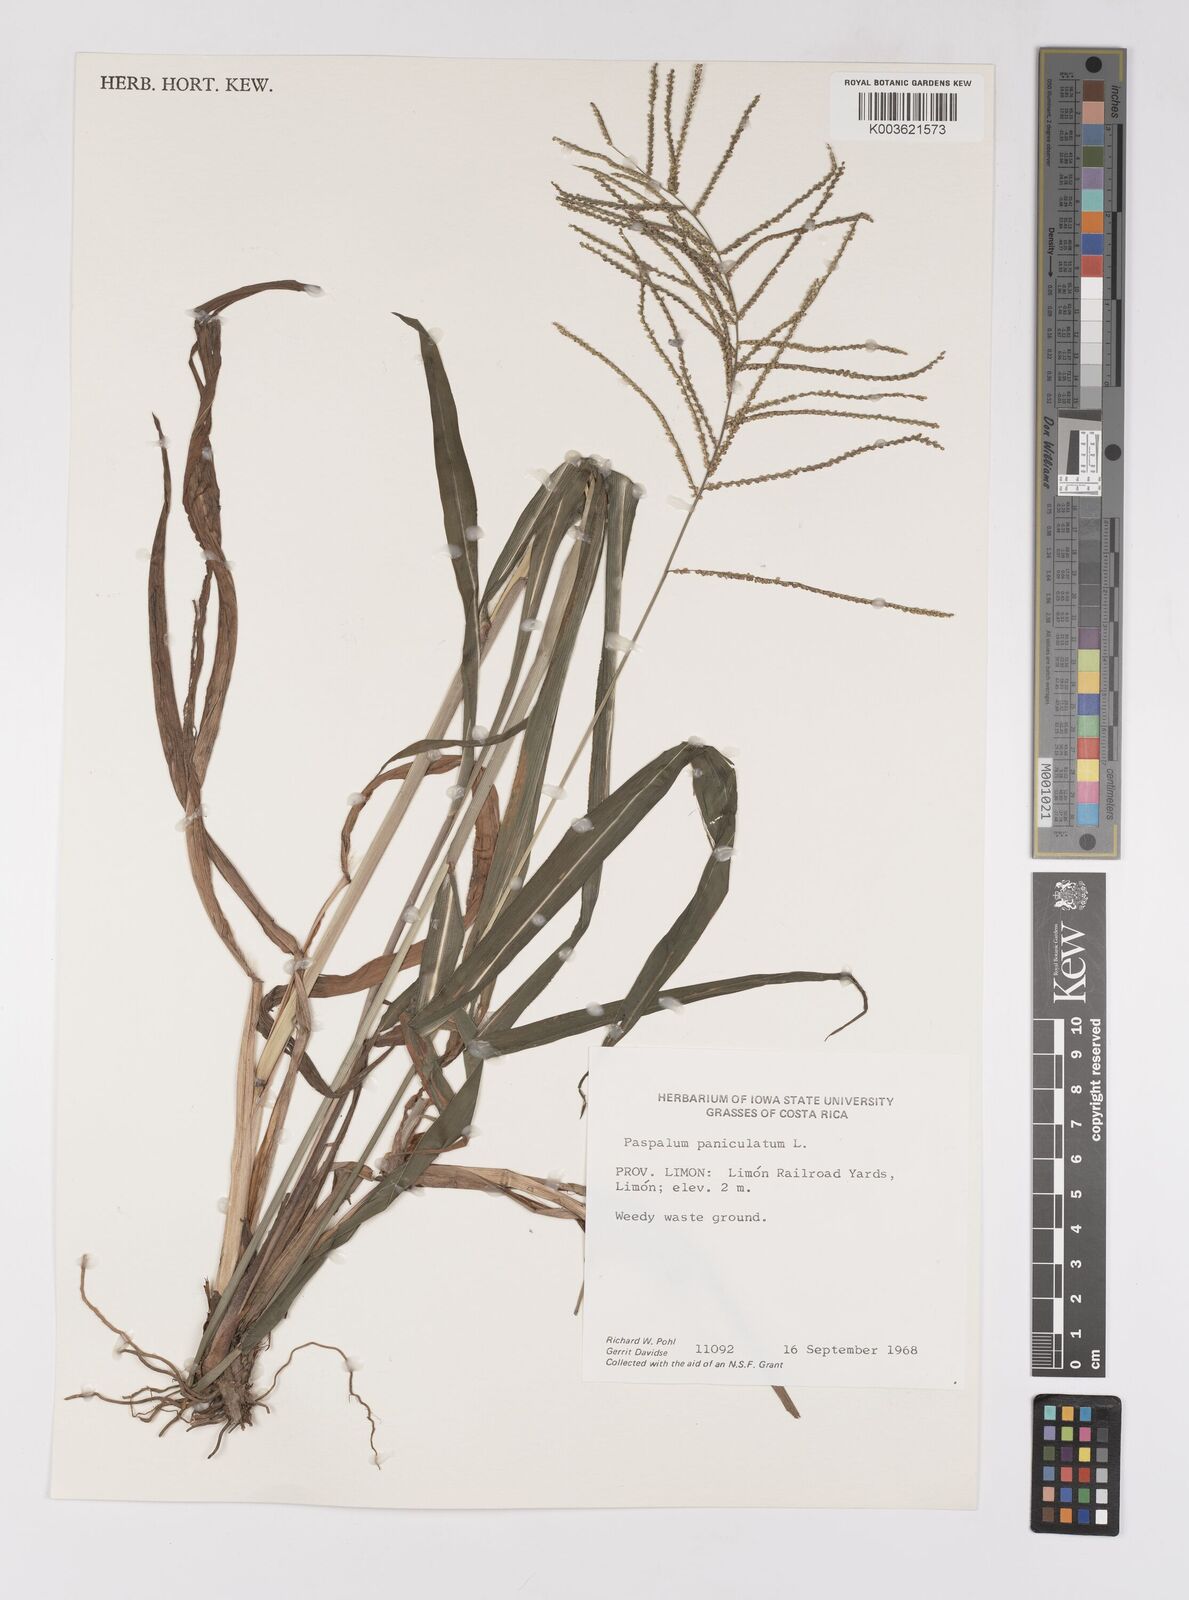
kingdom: Plantae
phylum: Tracheophyta
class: Liliopsida
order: Poales
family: Poaceae
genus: Paspalum
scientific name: Paspalum paniculatum
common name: Arrocillo
